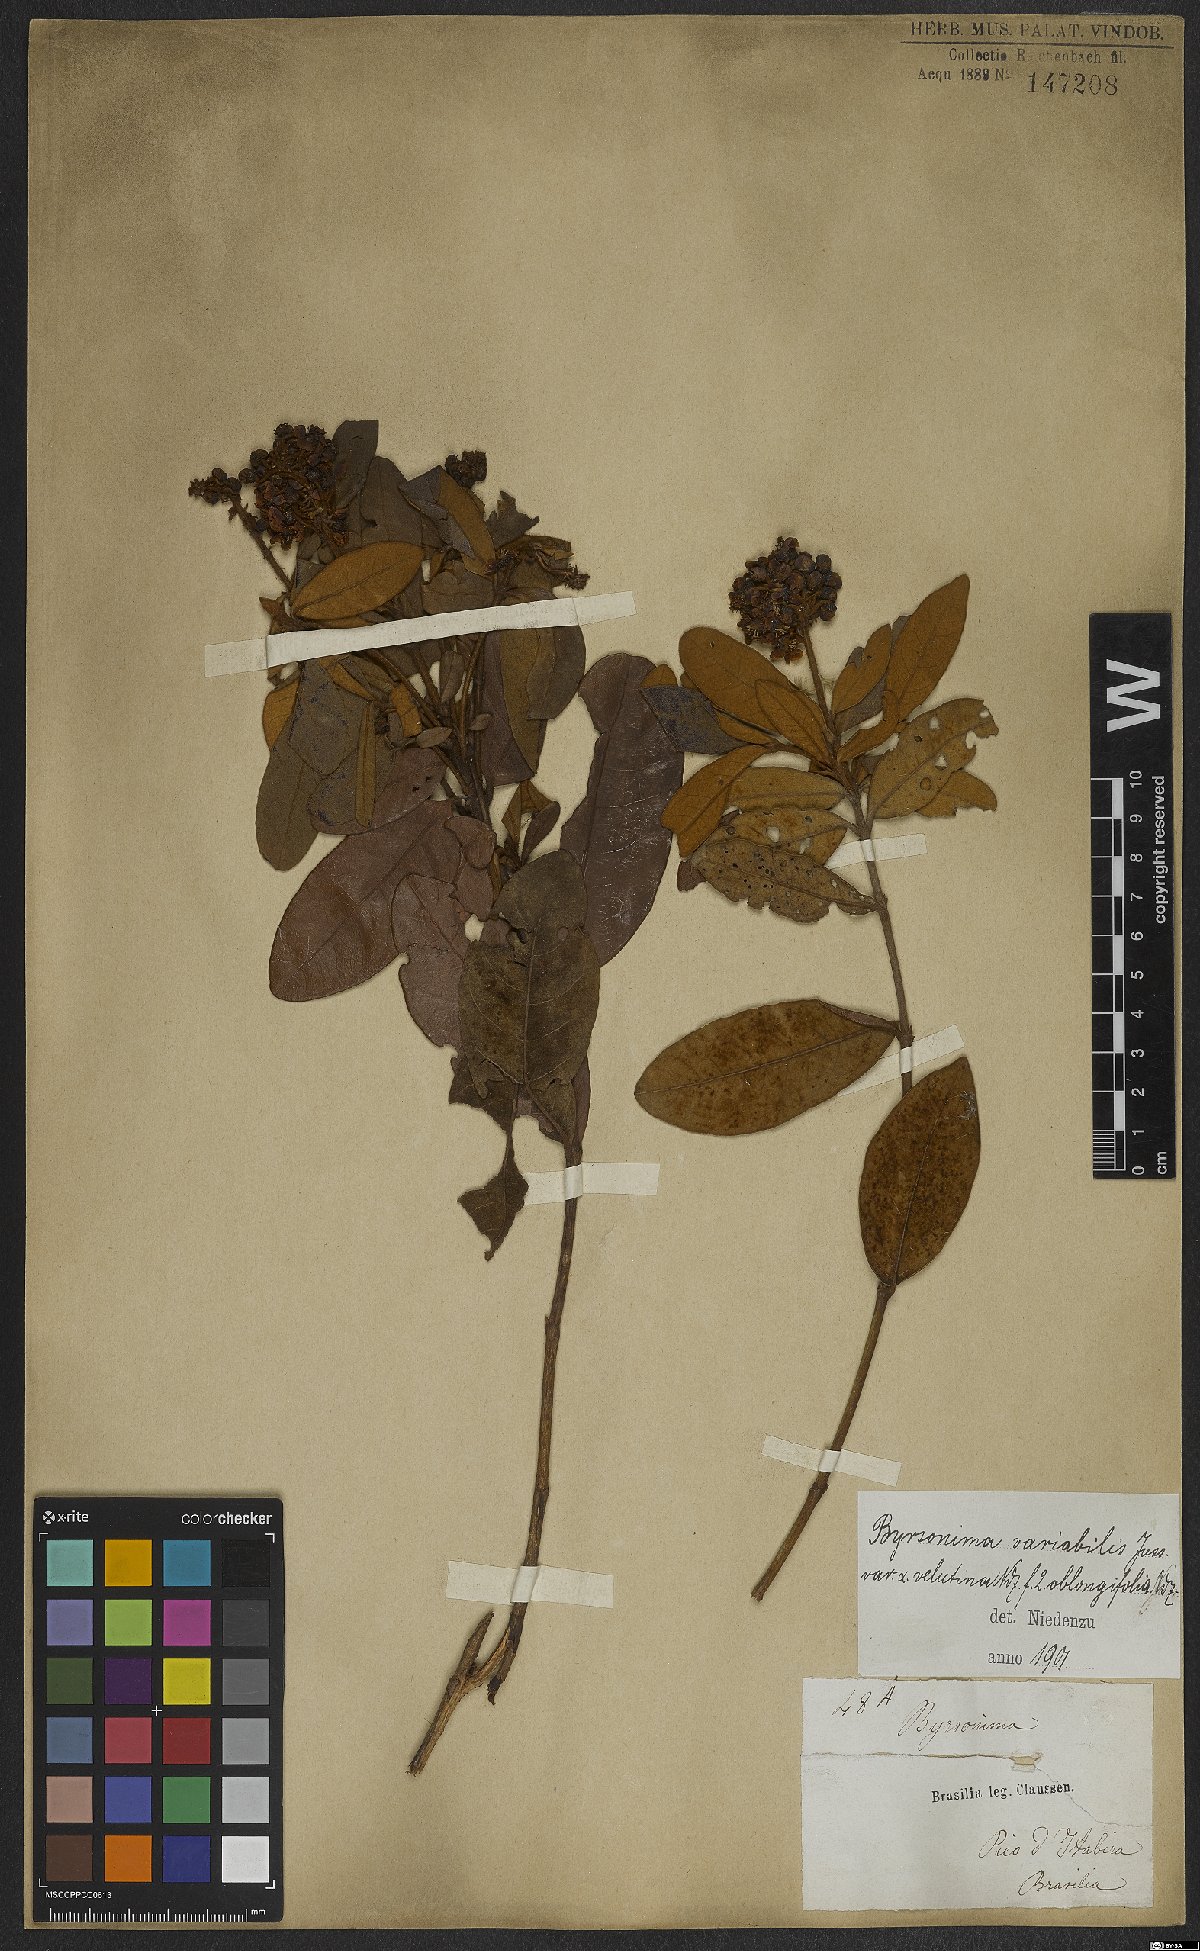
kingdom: Plantae
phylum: Tracheophyta
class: Magnoliopsida
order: Malpighiales
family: Malpighiaceae
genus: Byrsonima
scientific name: Byrsonima variabilis
